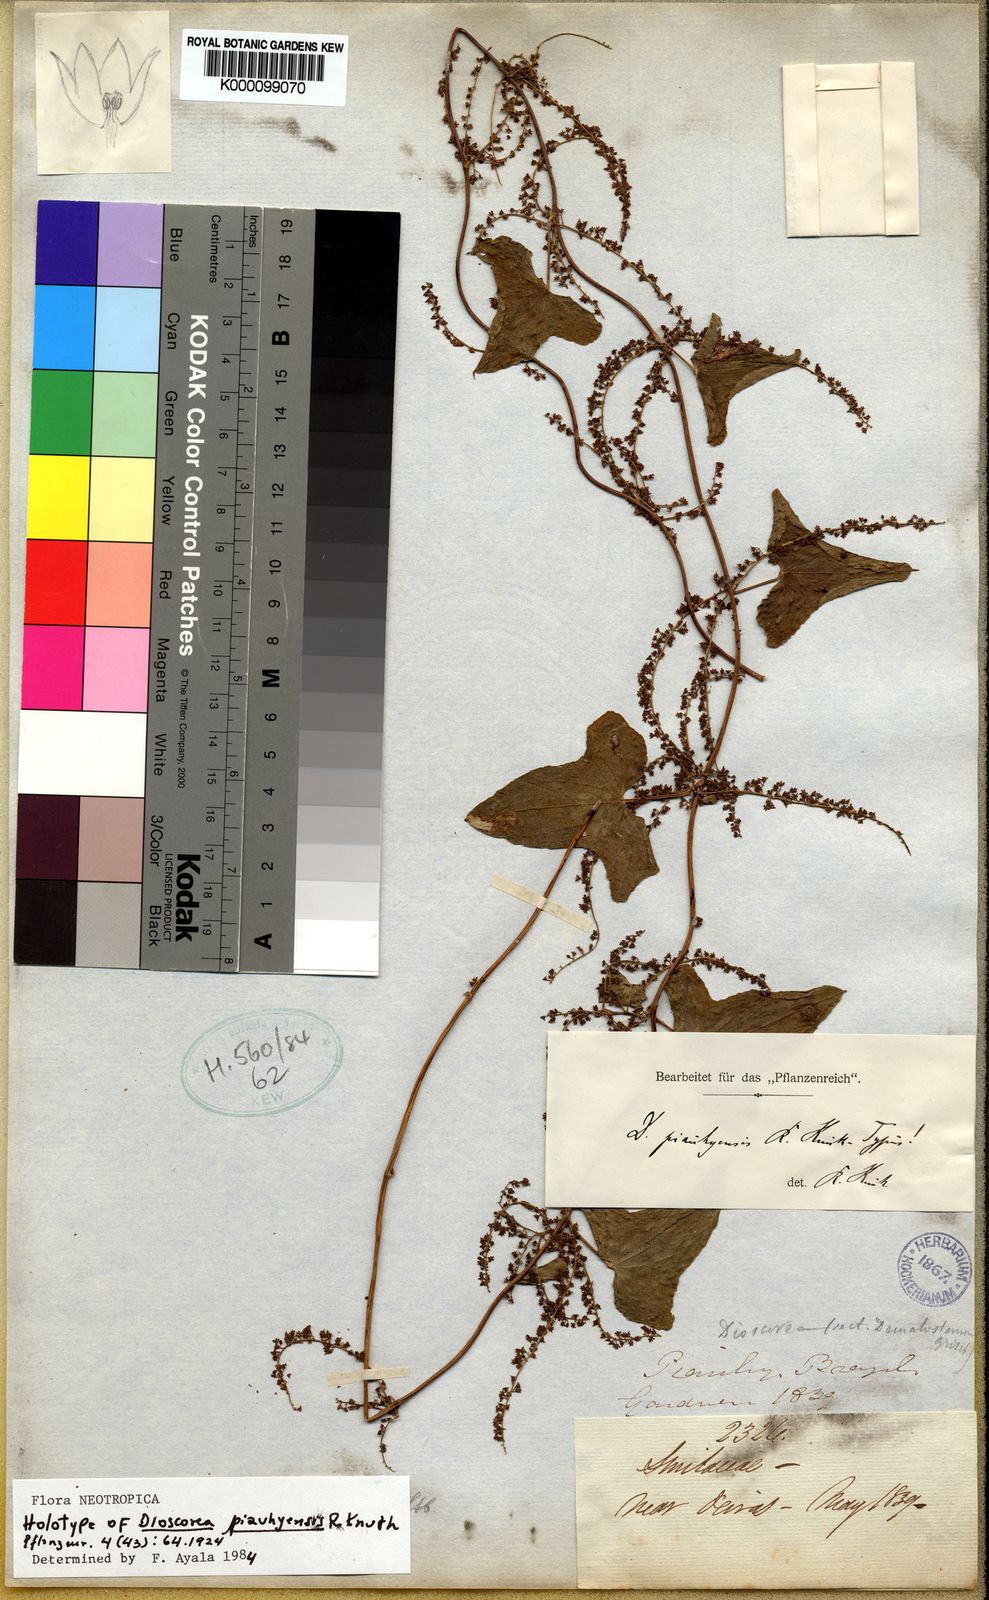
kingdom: Plantae
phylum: Tracheophyta
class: Liliopsida
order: Dioscoreales
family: Dioscoreaceae
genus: Dioscorea
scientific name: Dioscorea piauhyensis
